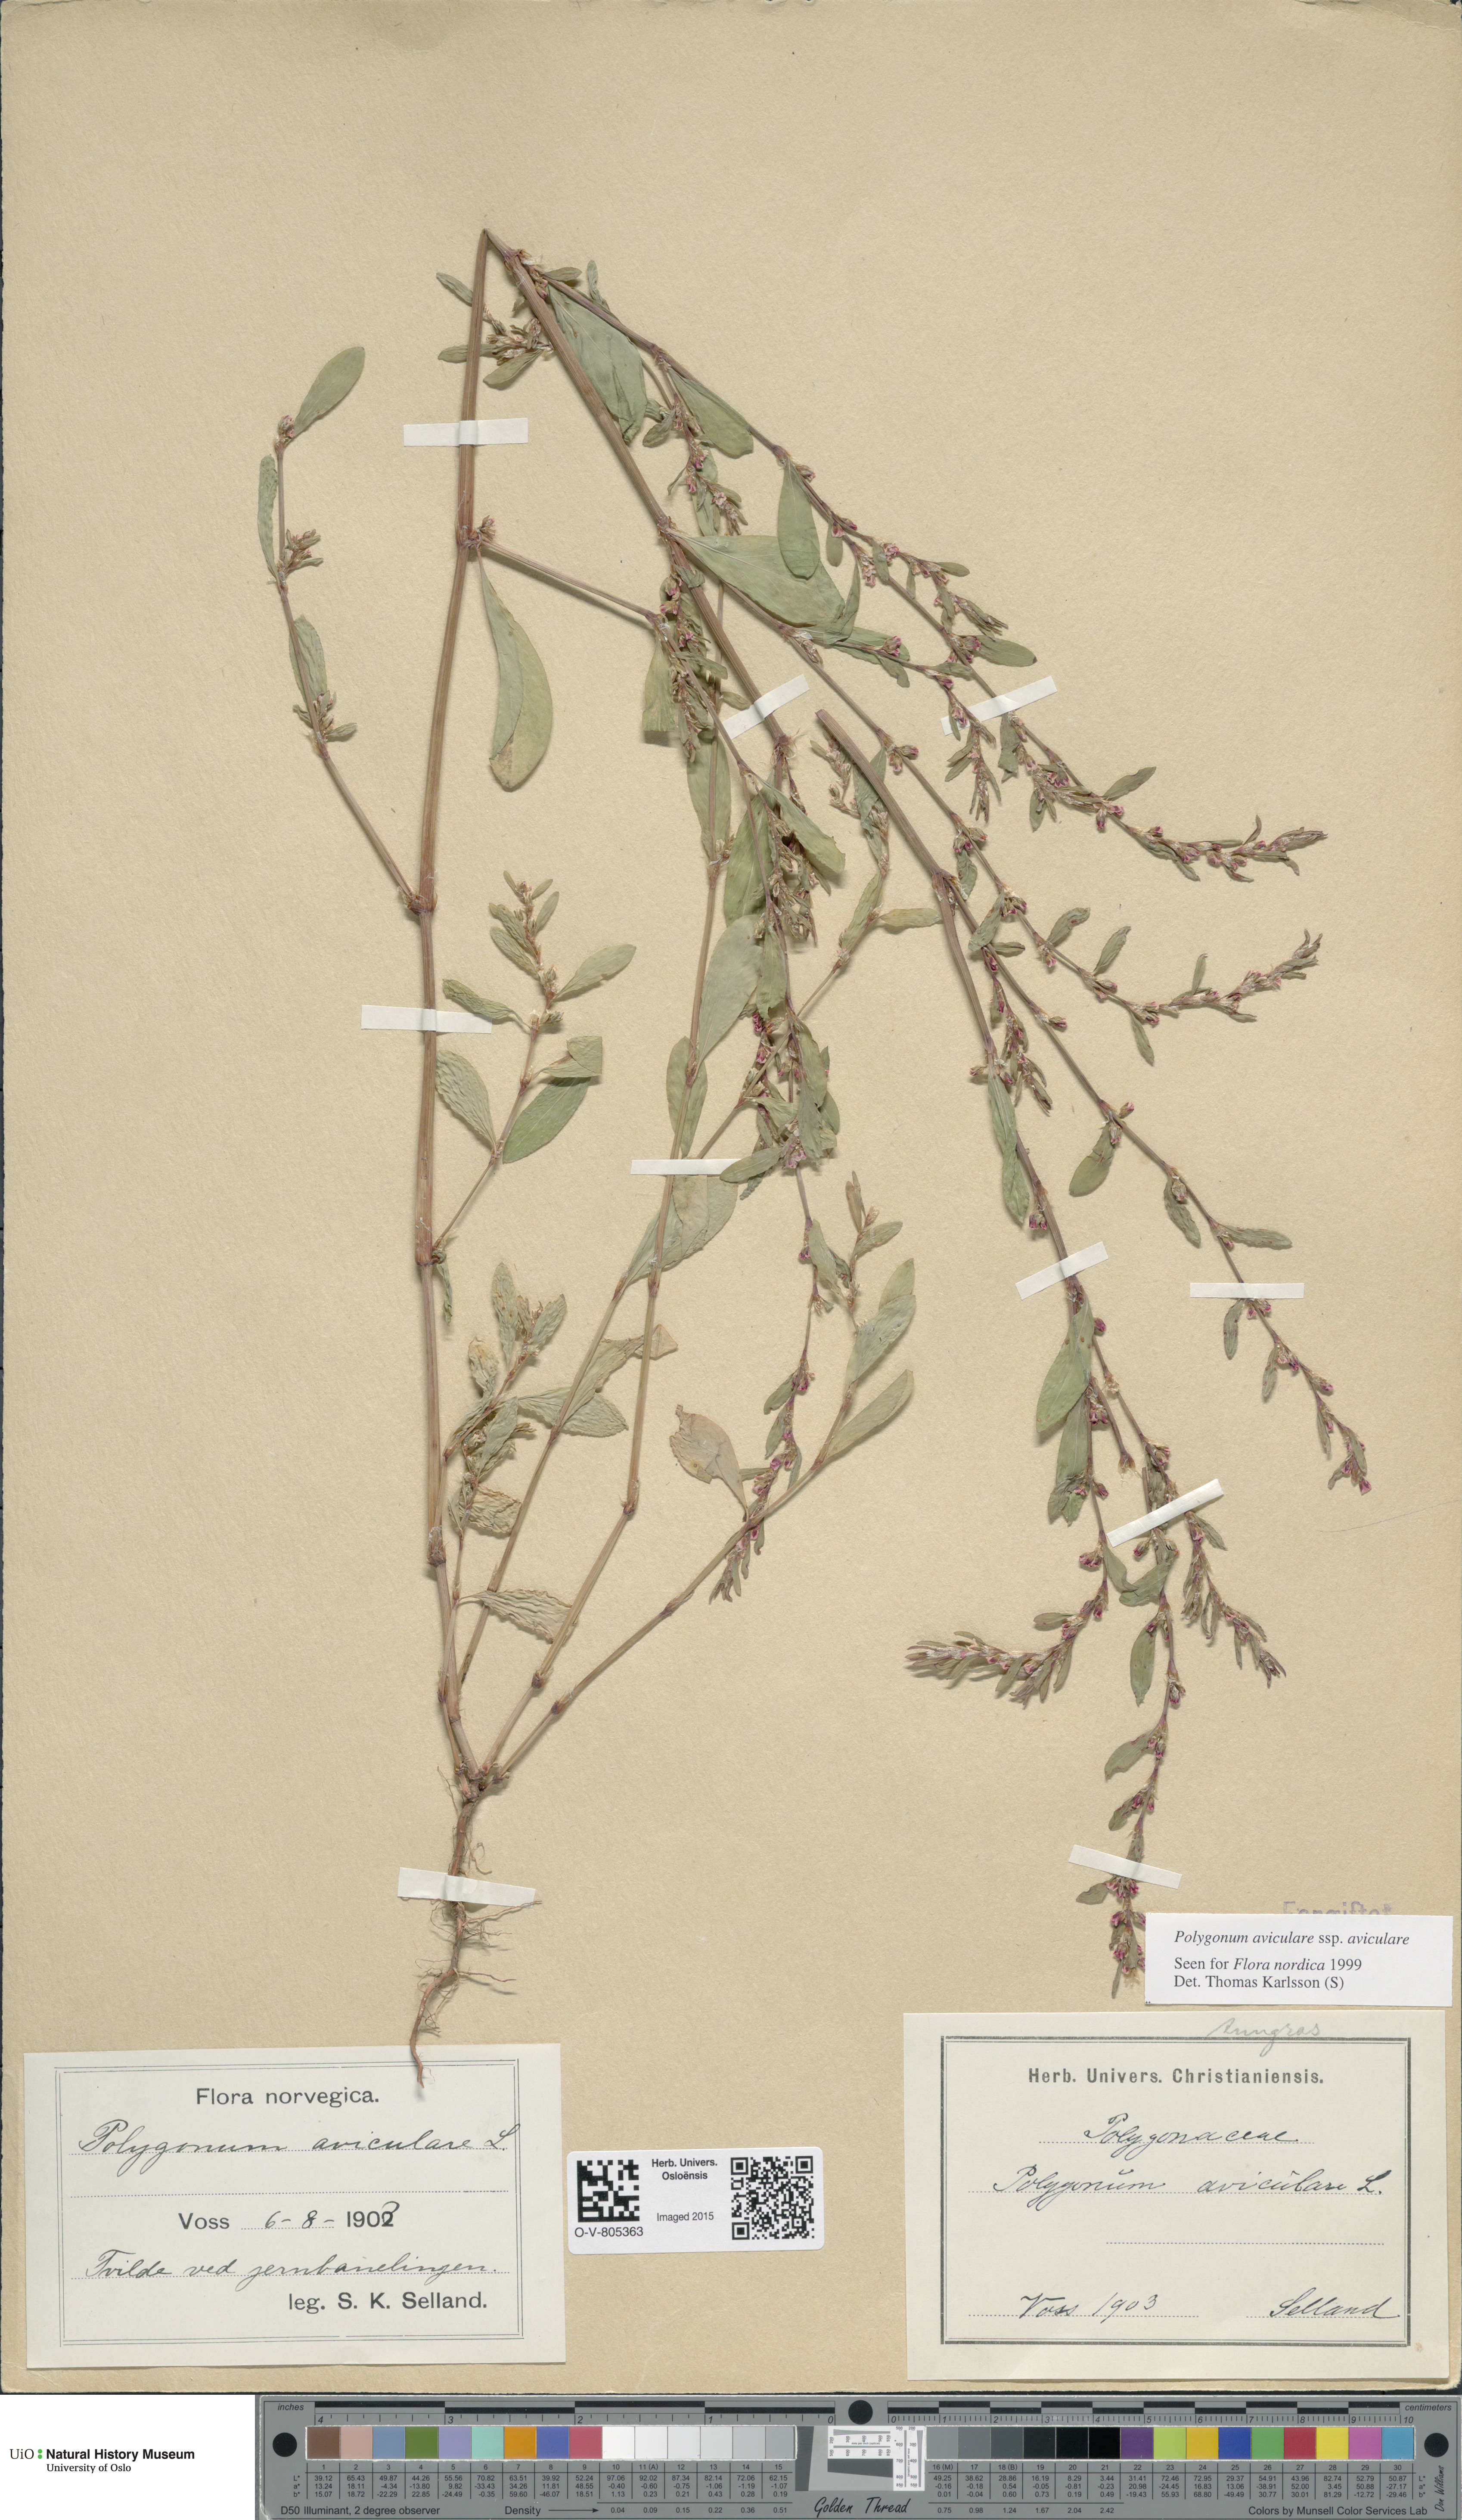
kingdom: Plantae
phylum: Tracheophyta
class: Magnoliopsida
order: Caryophyllales
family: Polygonaceae
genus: Polygonum
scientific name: Polygonum aviculare
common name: Prostrate knotweed
